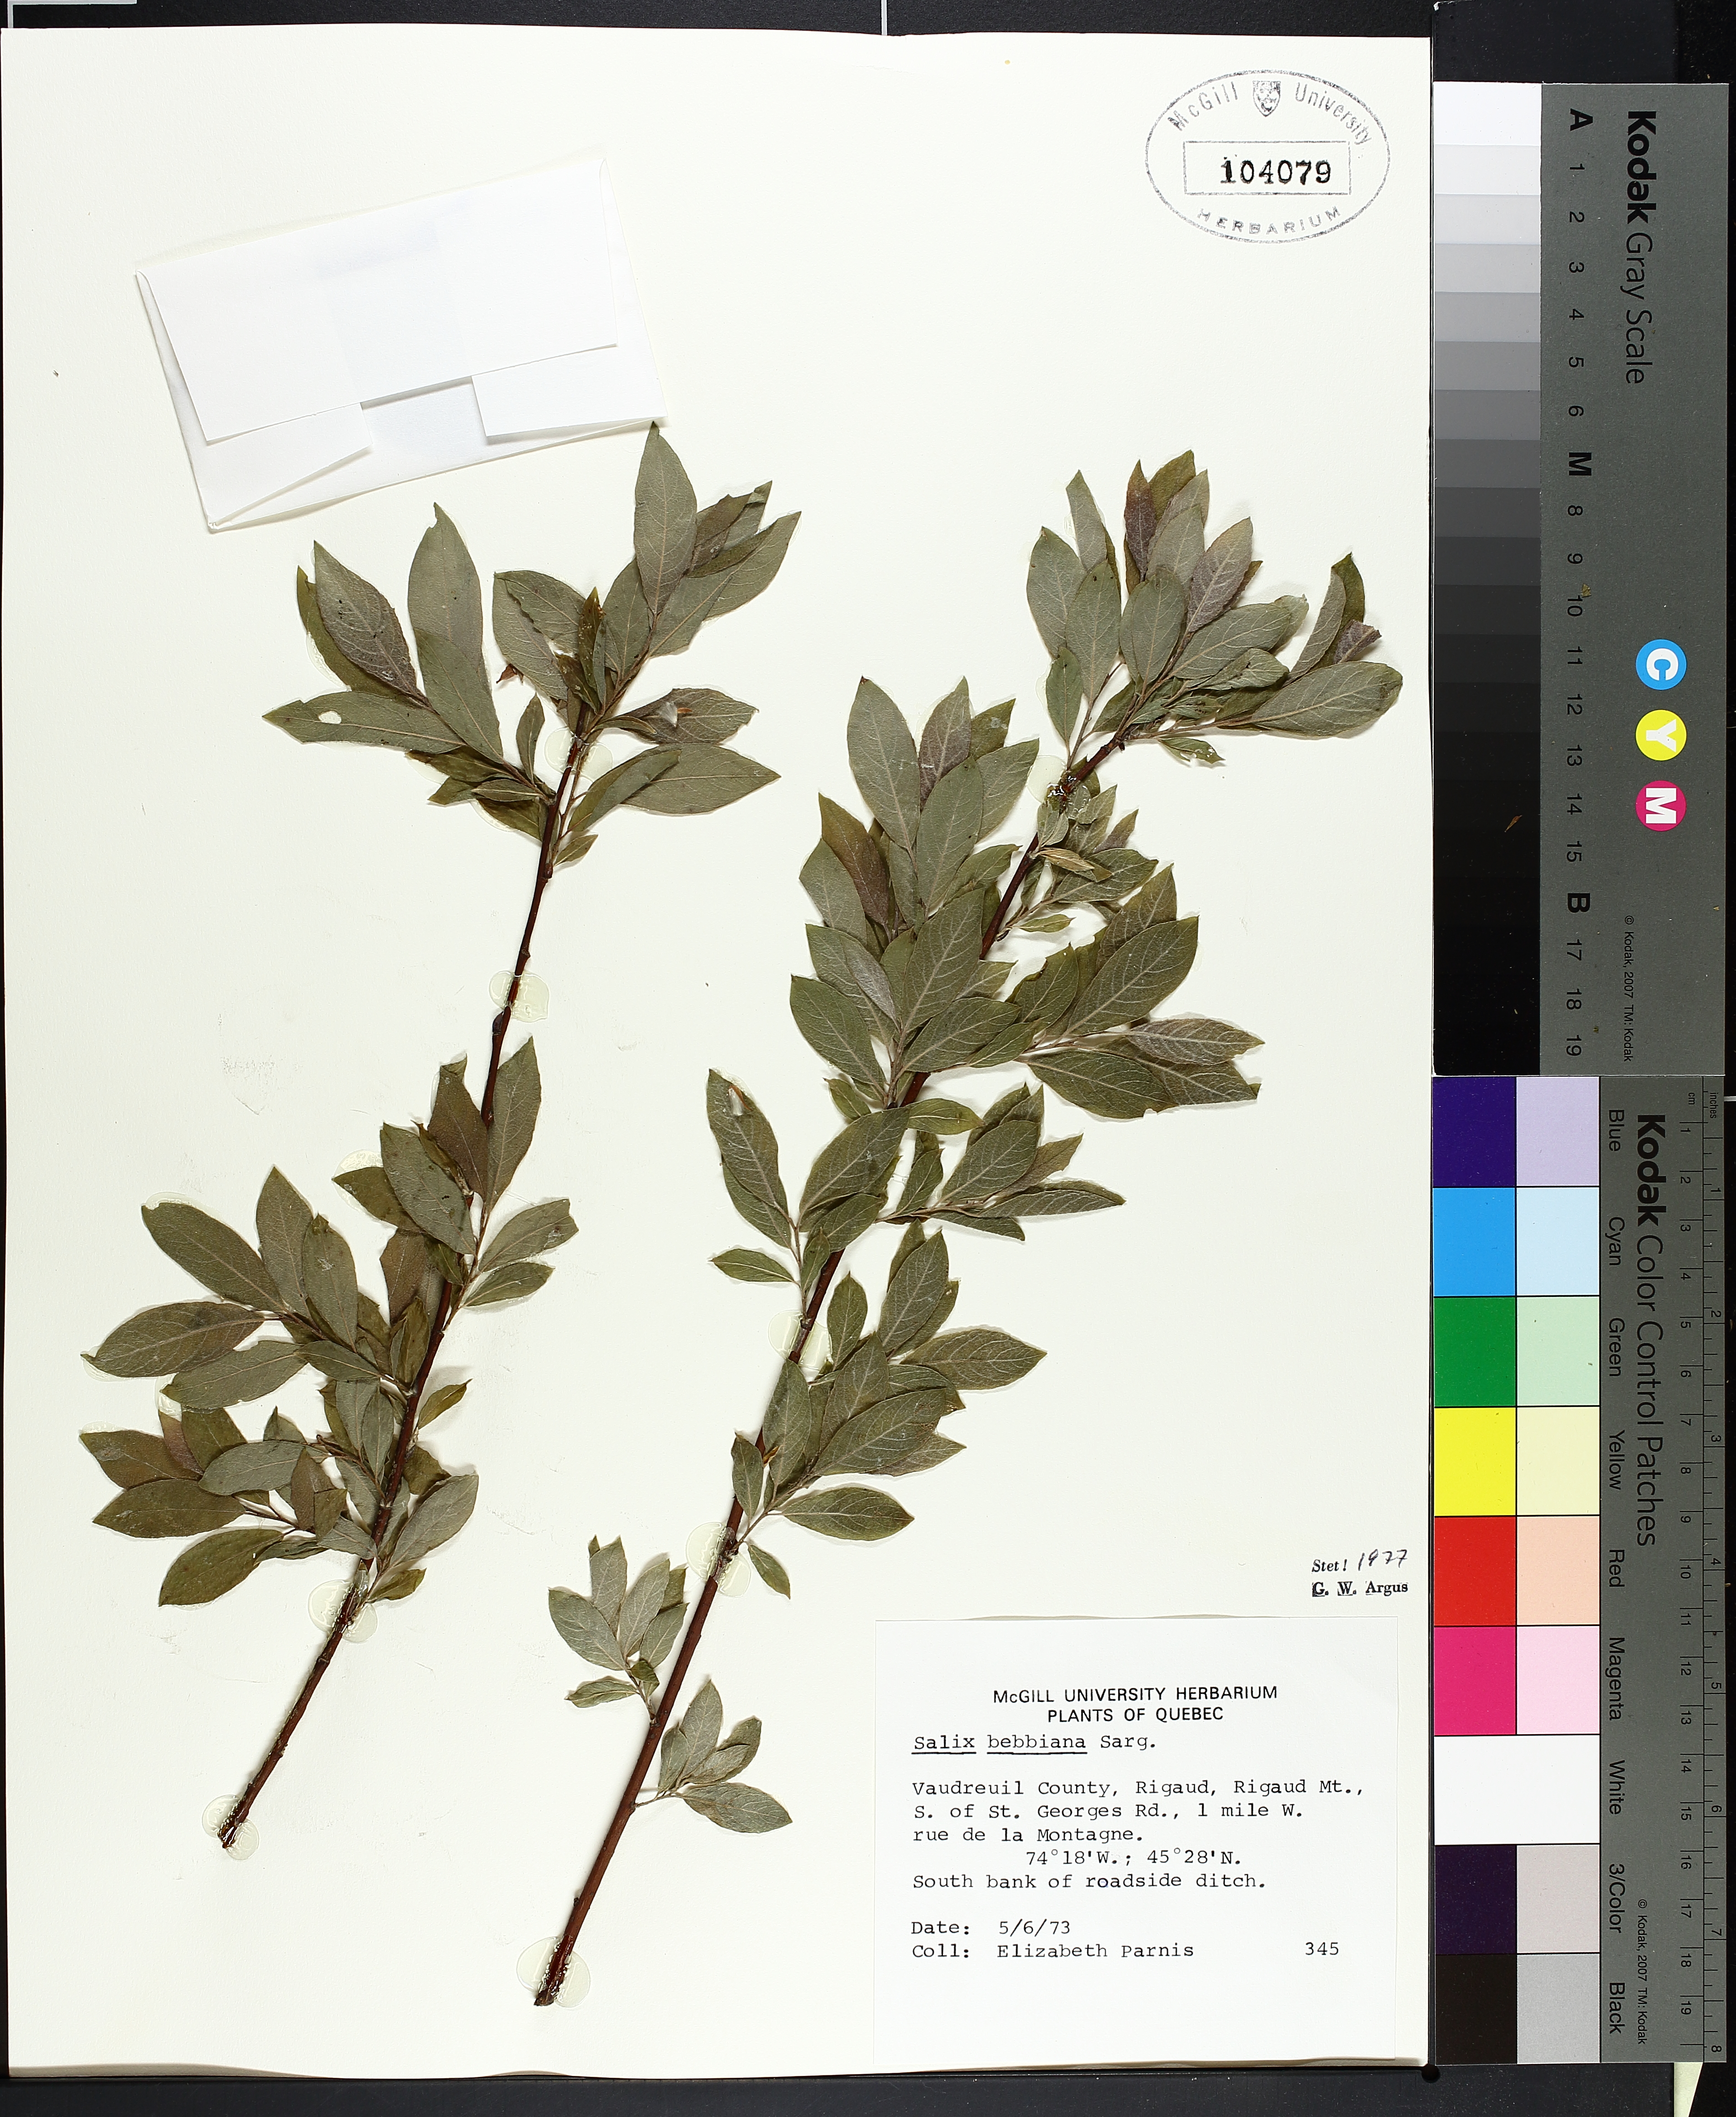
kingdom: Plantae
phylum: Tracheophyta
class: Liliopsida
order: Poales
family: Cyperaceae
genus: Carex
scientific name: Carex scoparia
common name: Broom sedge
